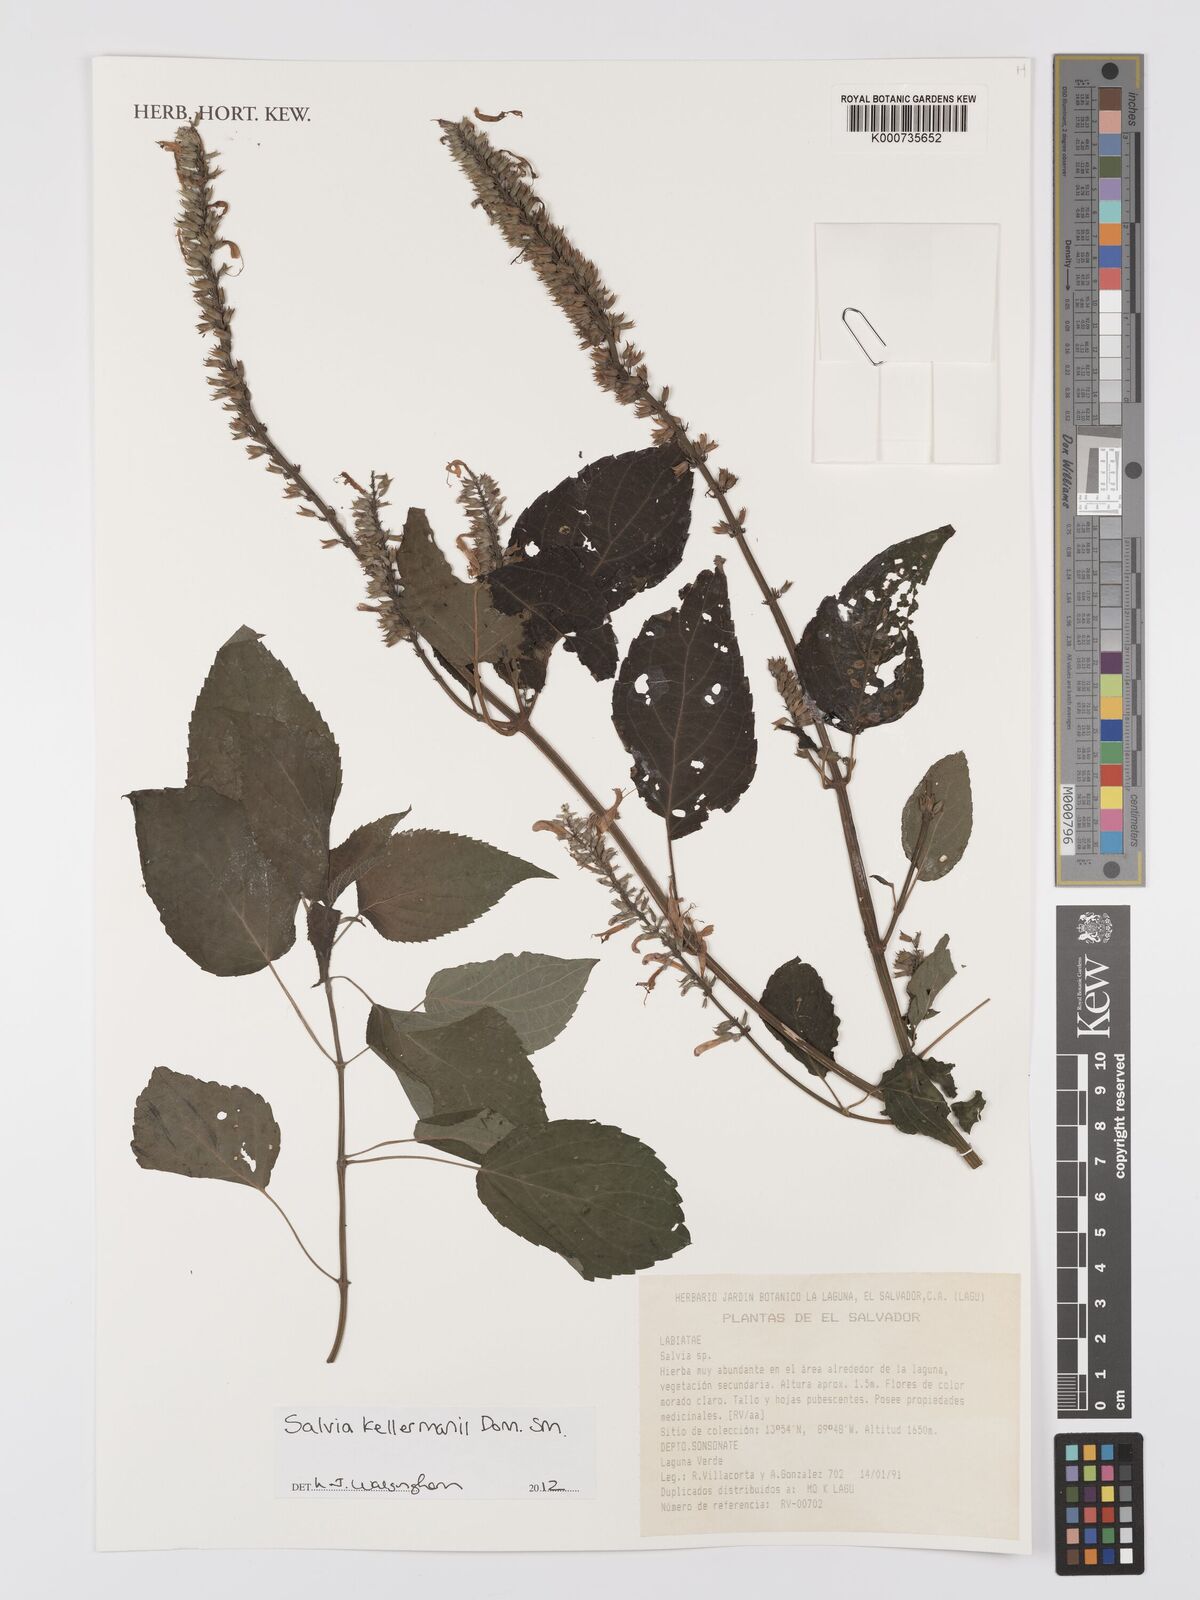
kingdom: Plantae
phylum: Tracheophyta
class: Magnoliopsida
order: Lamiales
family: Lamiaceae
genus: Salvia
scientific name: Salvia kellermanii
